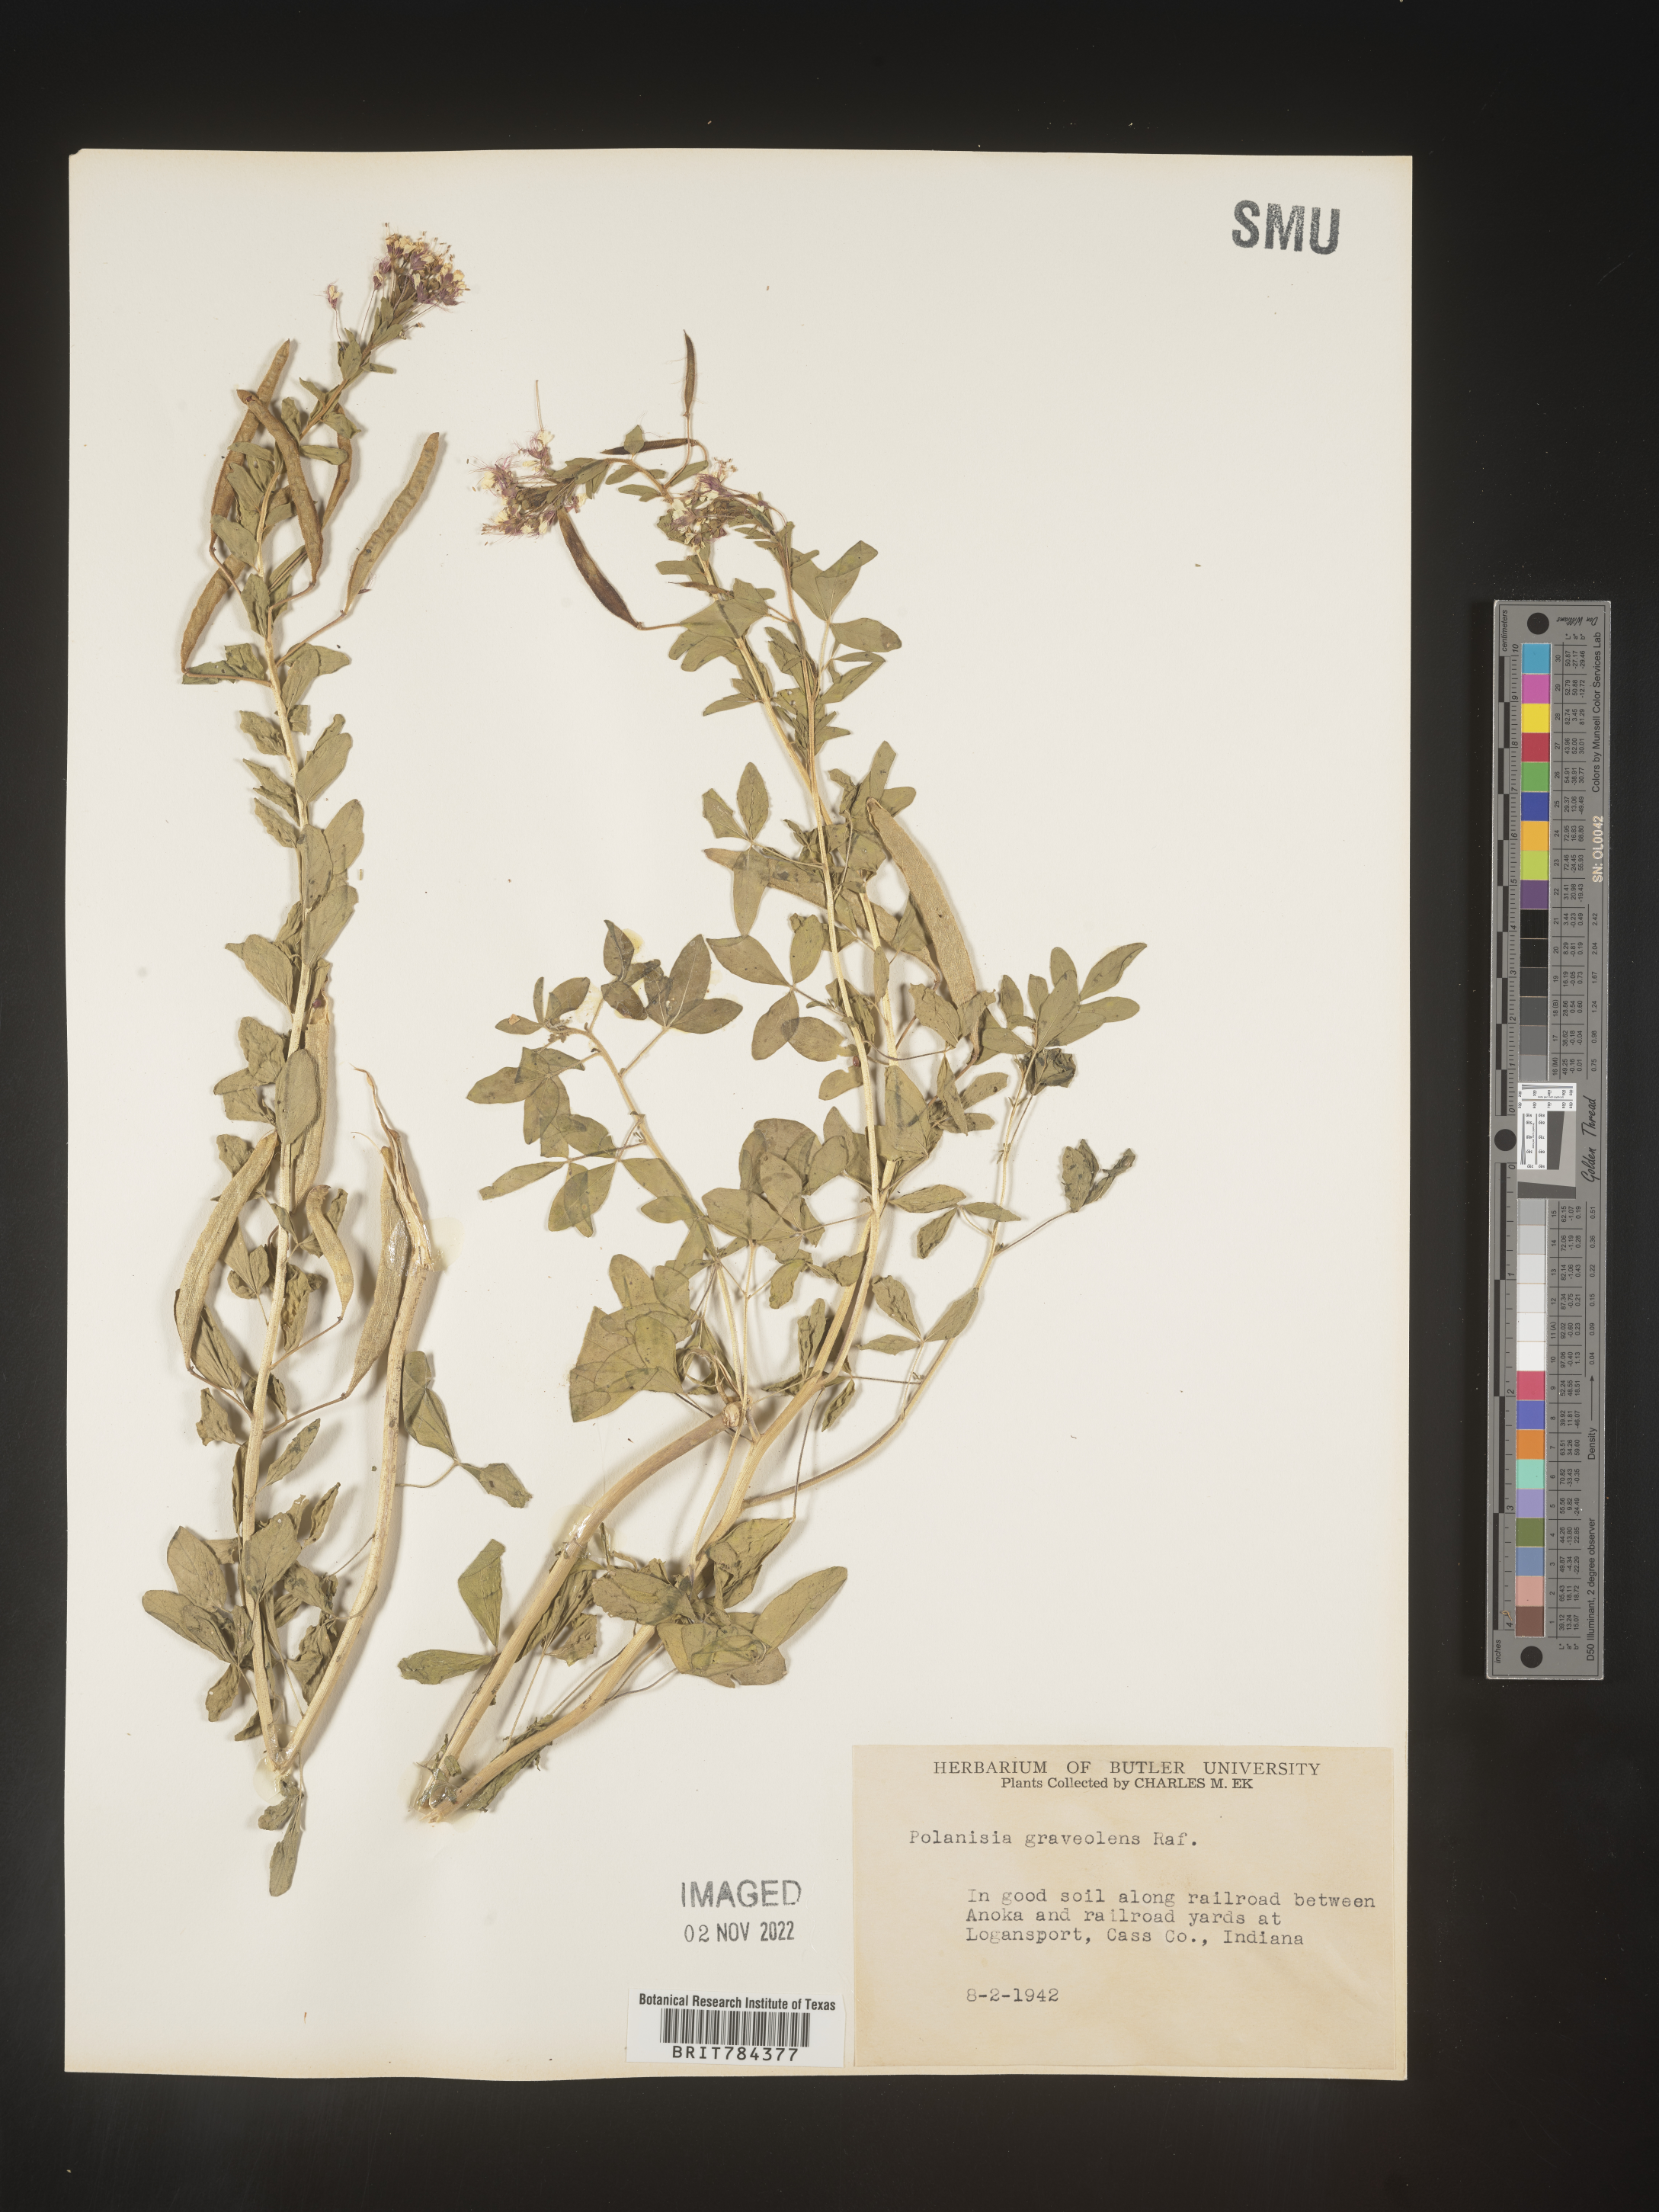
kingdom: Plantae
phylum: Tracheophyta
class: Magnoliopsida
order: Brassicales
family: Cleomaceae
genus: Polanisia
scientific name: Polanisia dodecandra
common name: Clammyweed
